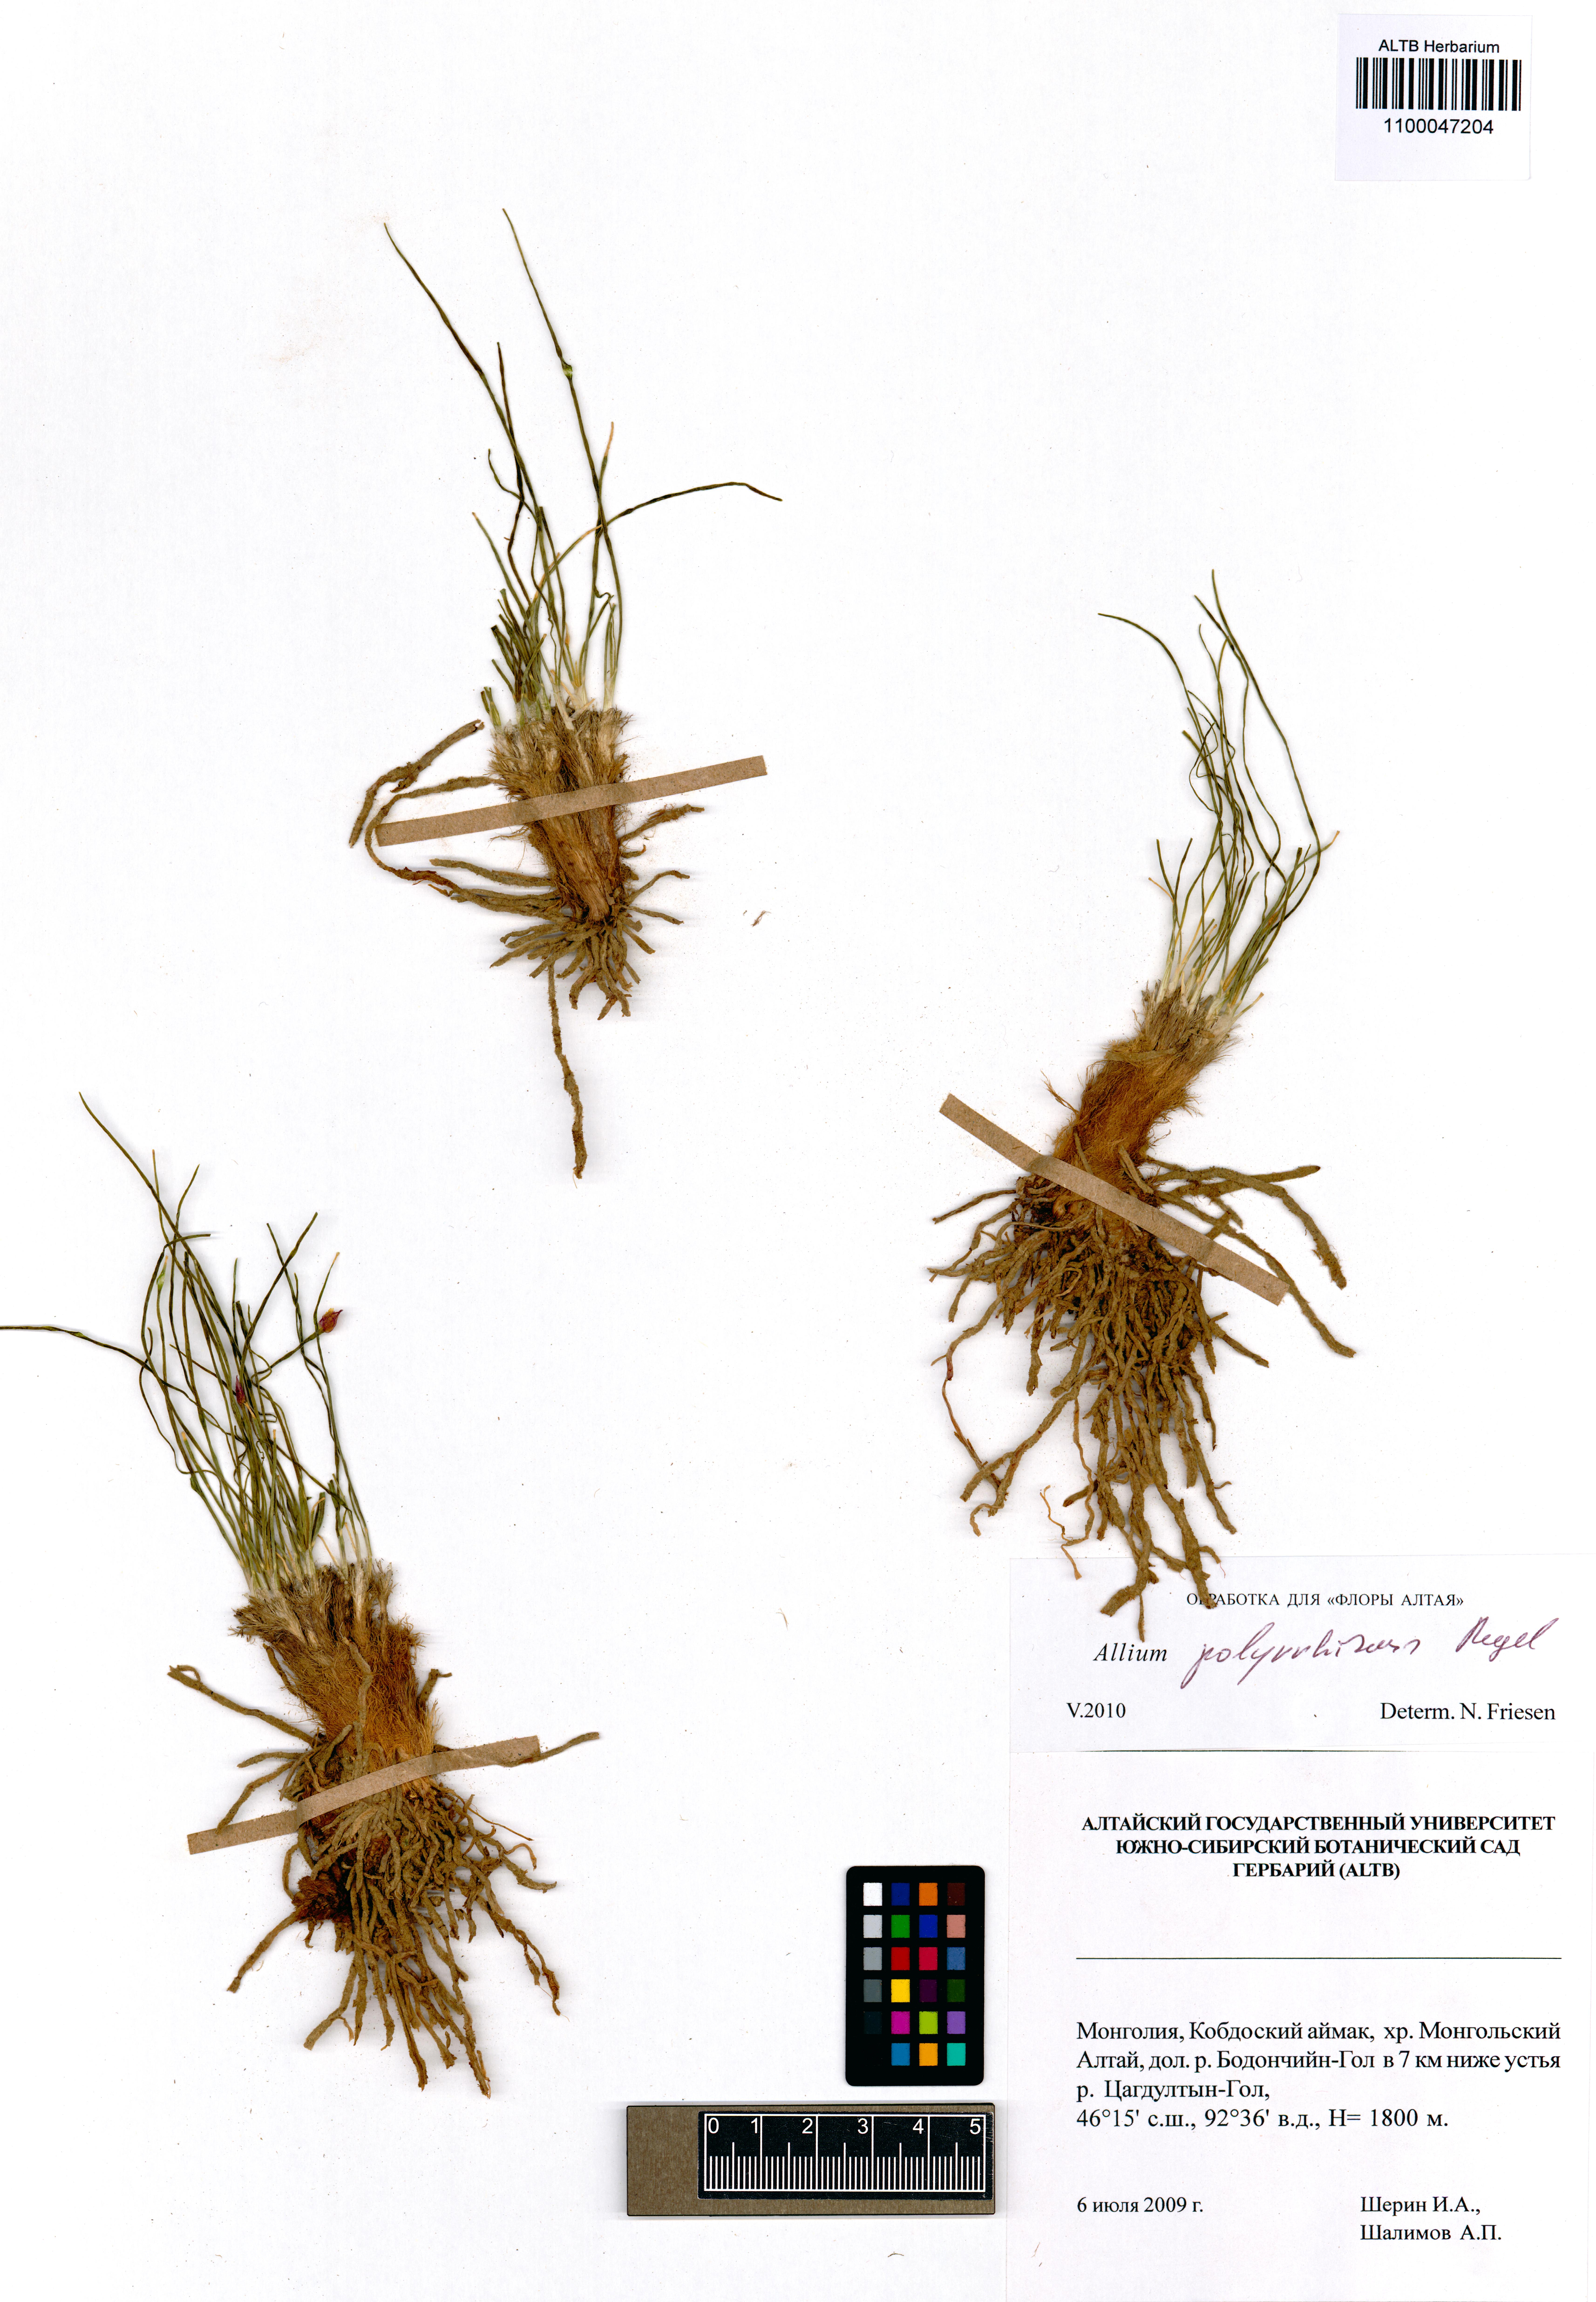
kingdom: Plantae
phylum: Tracheophyta
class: Liliopsida
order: Asparagales
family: Amaryllidaceae
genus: Allium
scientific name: Allium polyrhizum
